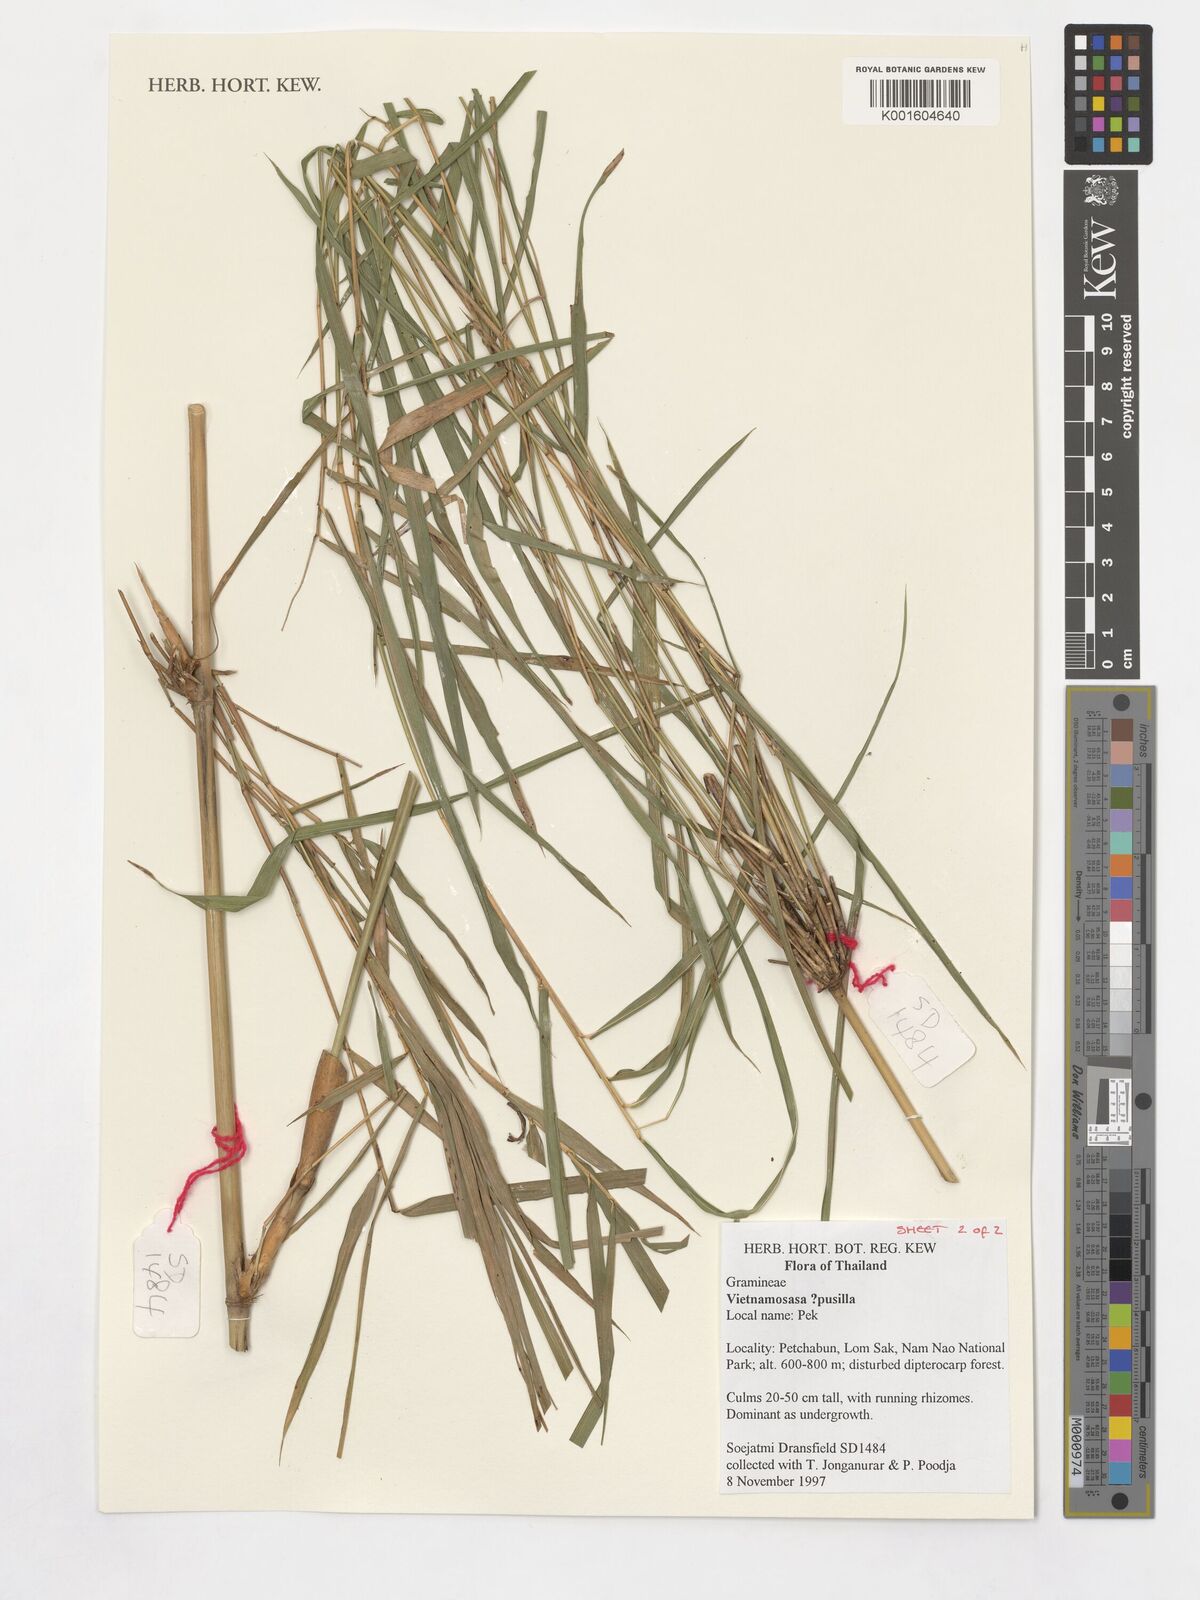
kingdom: Plantae
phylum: Tracheophyta
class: Liliopsida
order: Poales
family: Poaceae
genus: Vietnamosasa
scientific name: Vietnamosasa pusilla
